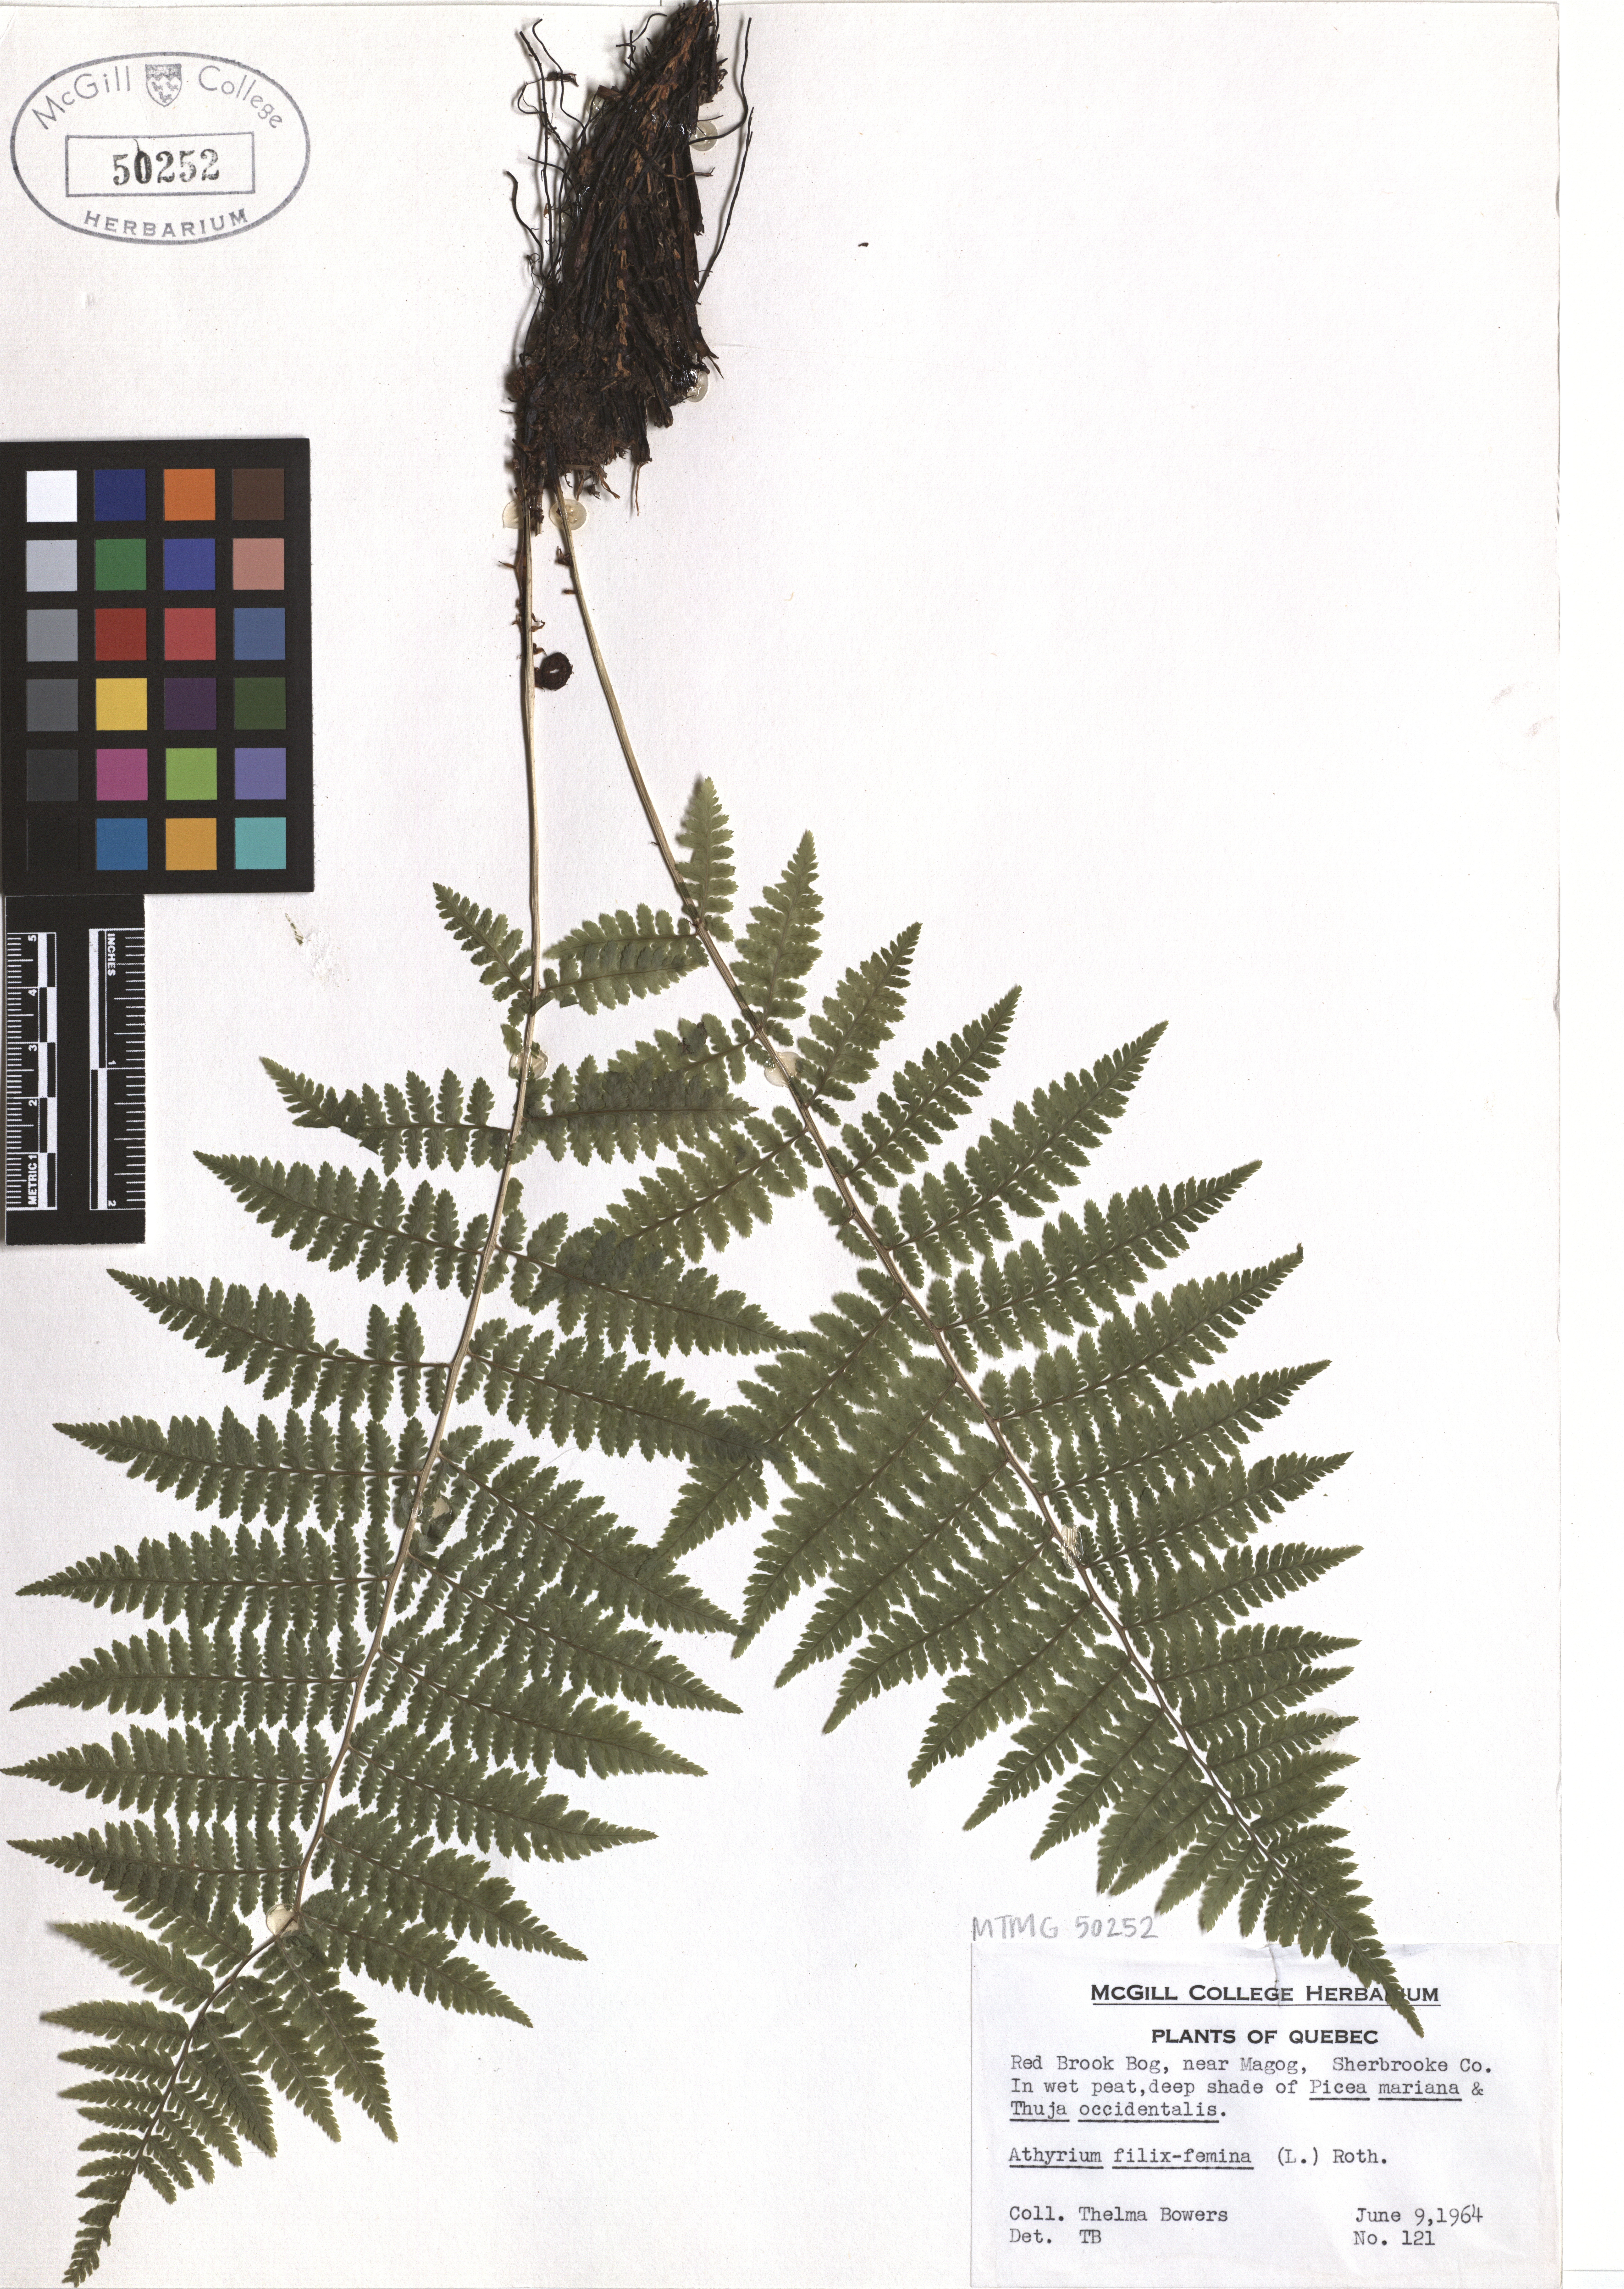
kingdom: Plantae
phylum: Tracheophyta
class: Polypodiopsida
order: Polypodiales
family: Athyriaceae
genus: Athyrium
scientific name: Athyrium filix-femina
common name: Lady fern
